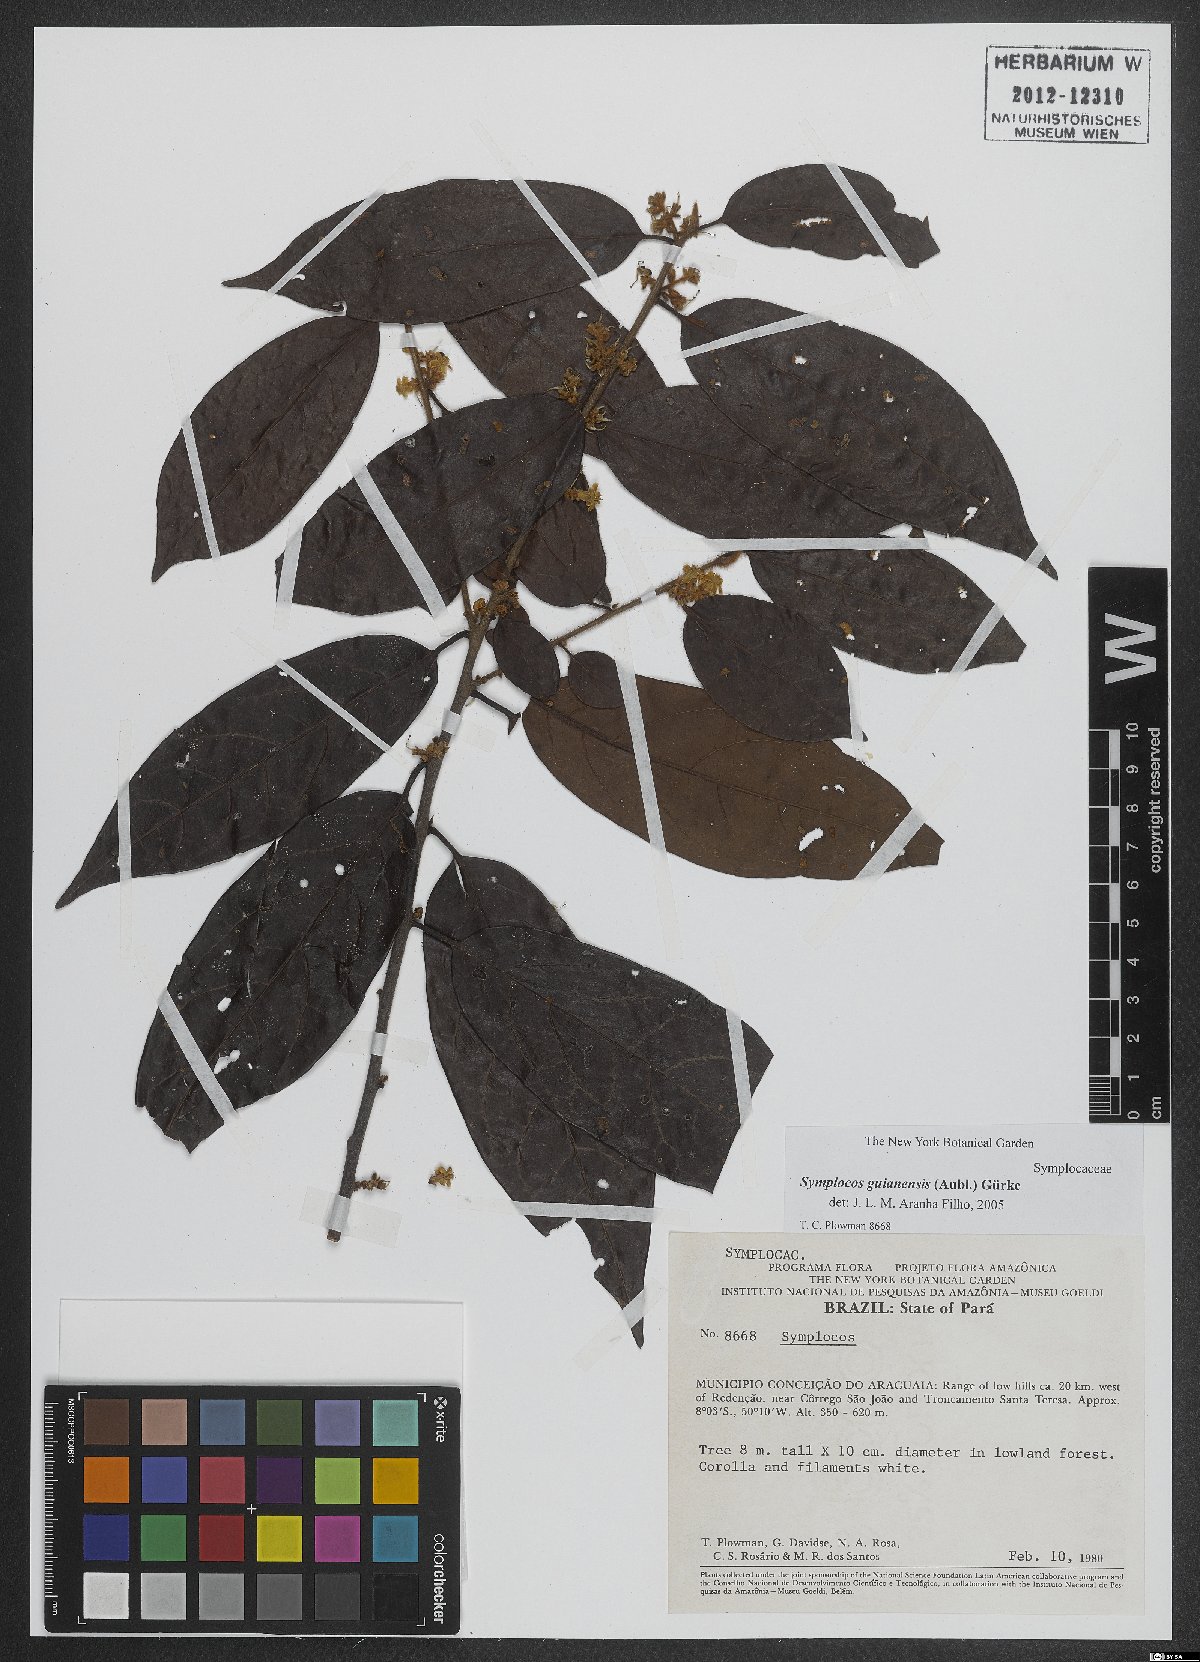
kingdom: Plantae
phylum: Tracheophyta
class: Magnoliopsida
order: Ericales
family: Symplocaceae
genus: Symplocos
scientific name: Symplocos guianensis
